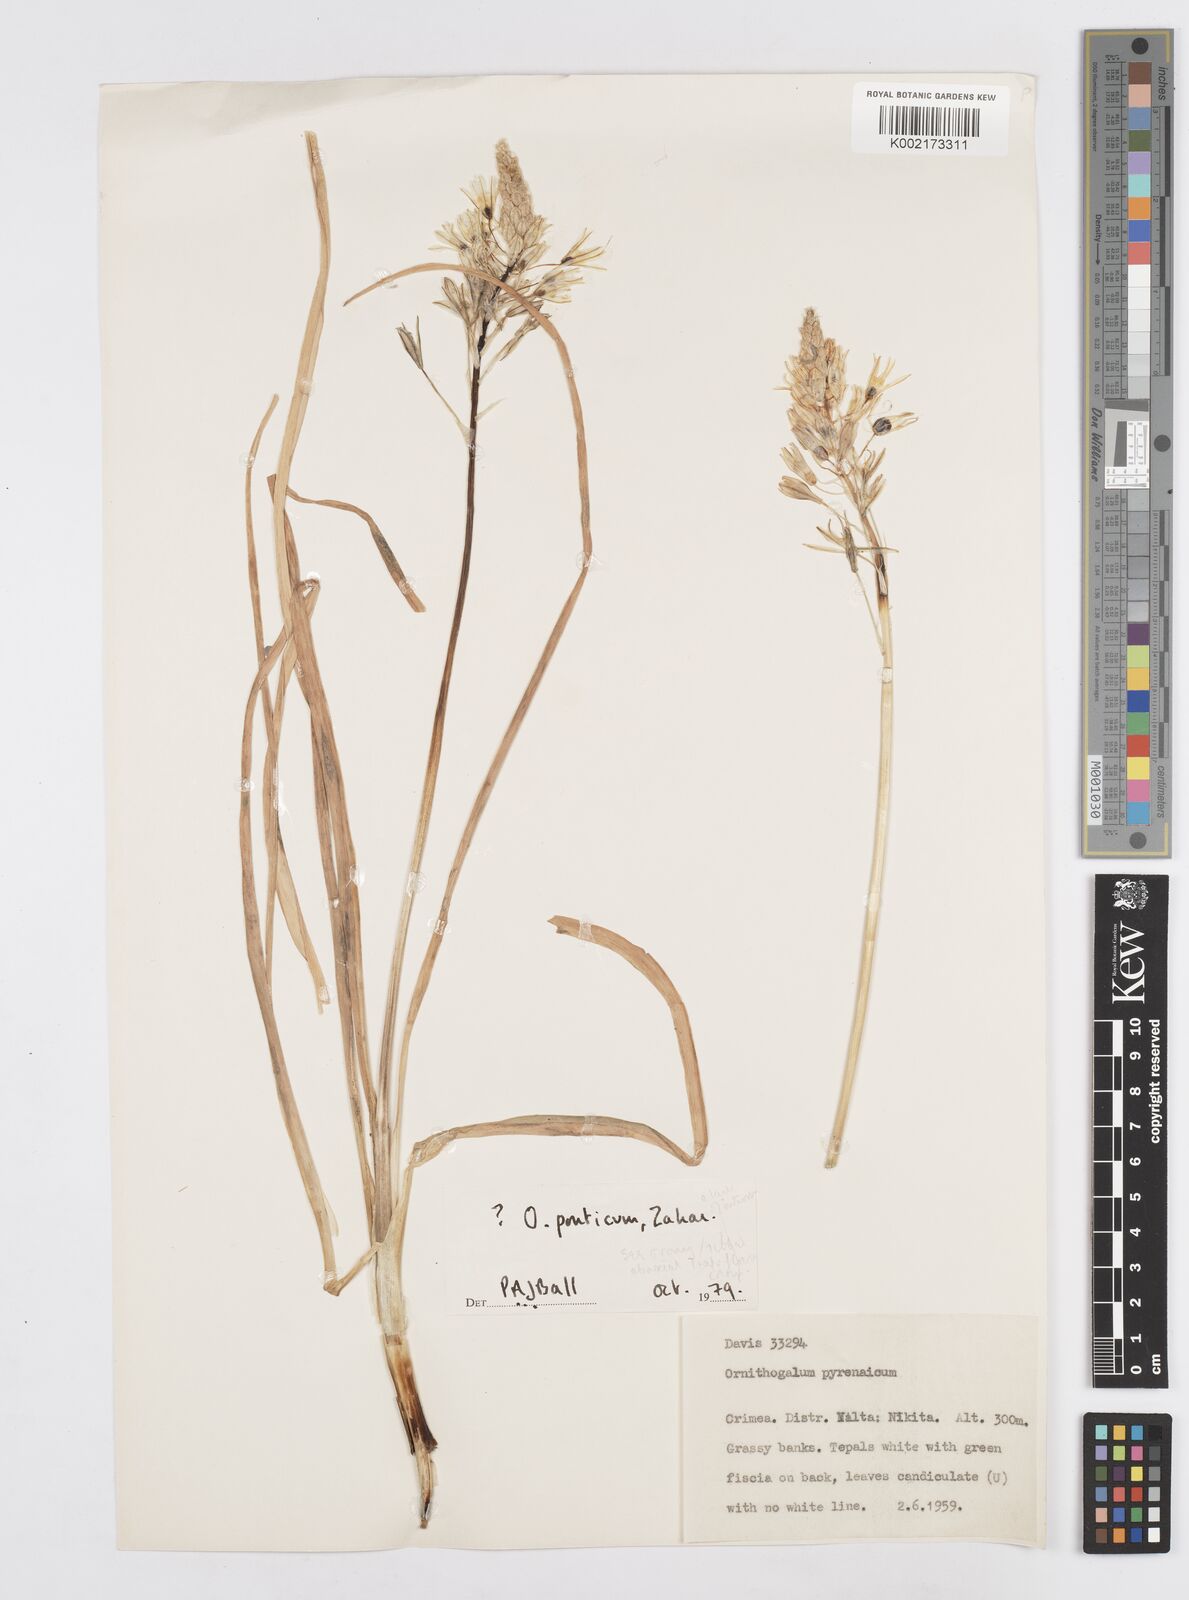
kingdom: Plantae
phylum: Tracheophyta
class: Liliopsida
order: Asparagales
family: Asparagaceae
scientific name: Asparagaceae
